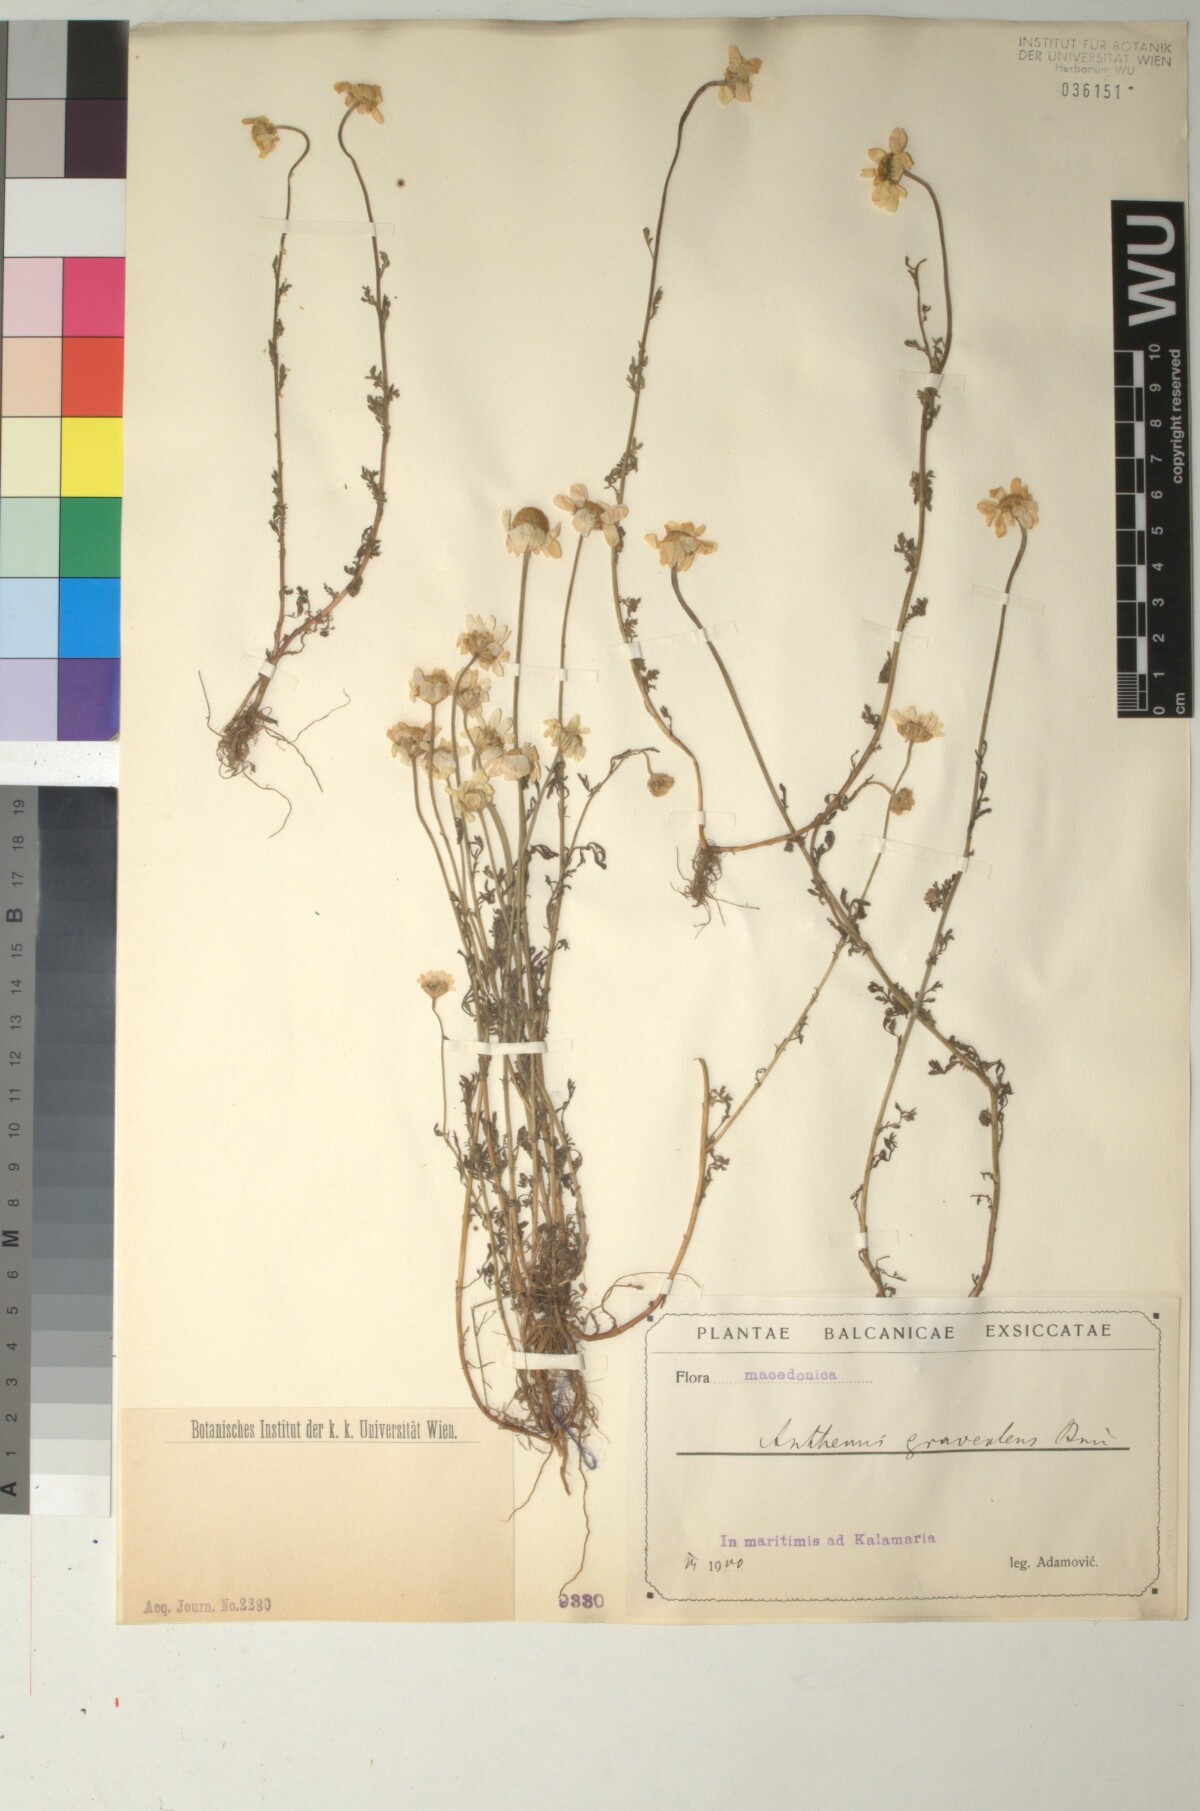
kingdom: Plantae
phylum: Tracheophyta
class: Magnoliopsida
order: Asterales
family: Asteraceae
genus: Anthemis
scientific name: Anthemis cretica
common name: Mountain dog-daisy
